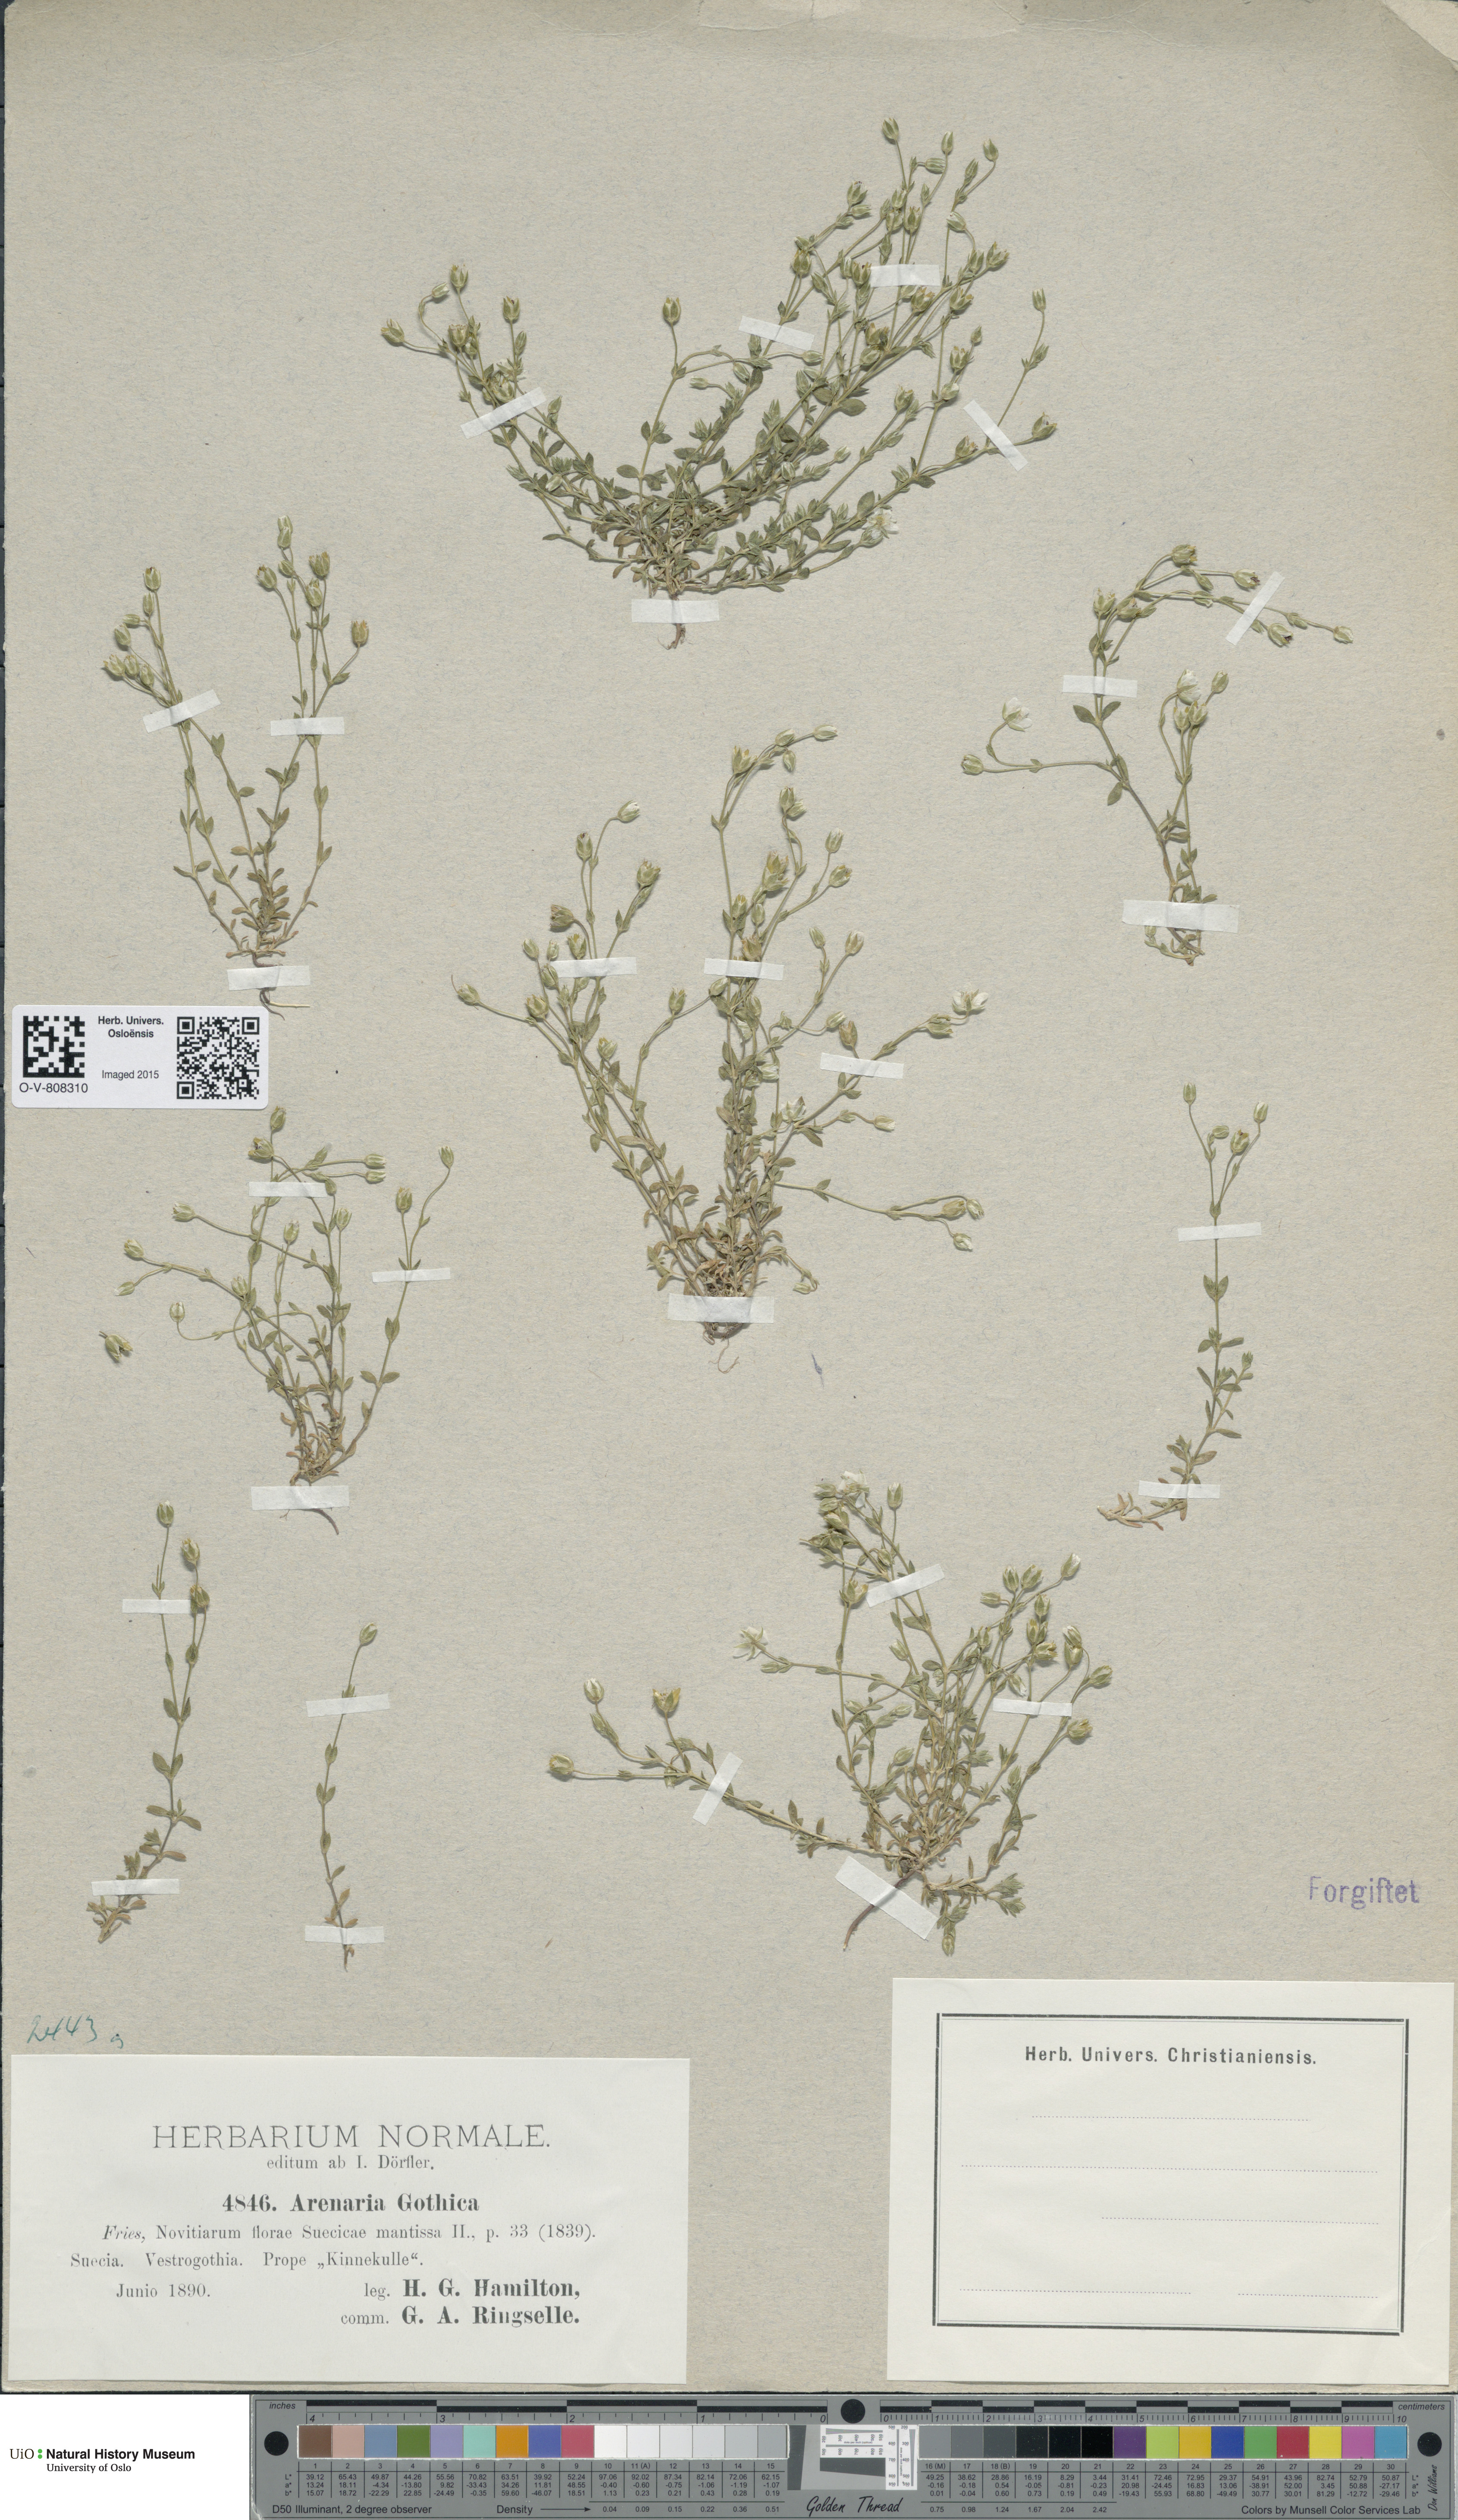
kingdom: Plantae
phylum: Tracheophyta
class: Magnoliopsida
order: Caryophyllales
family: Caryophyllaceae
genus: Arenaria
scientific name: Arenaria gothica
